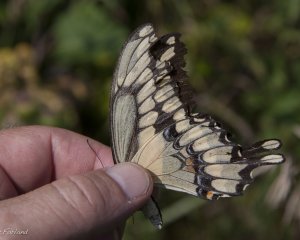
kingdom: Animalia
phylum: Arthropoda
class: Insecta
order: Lepidoptera
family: Papilionidae
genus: Papilio
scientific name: Papilio cresphontes
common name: Eastern Giant Swallowtail
